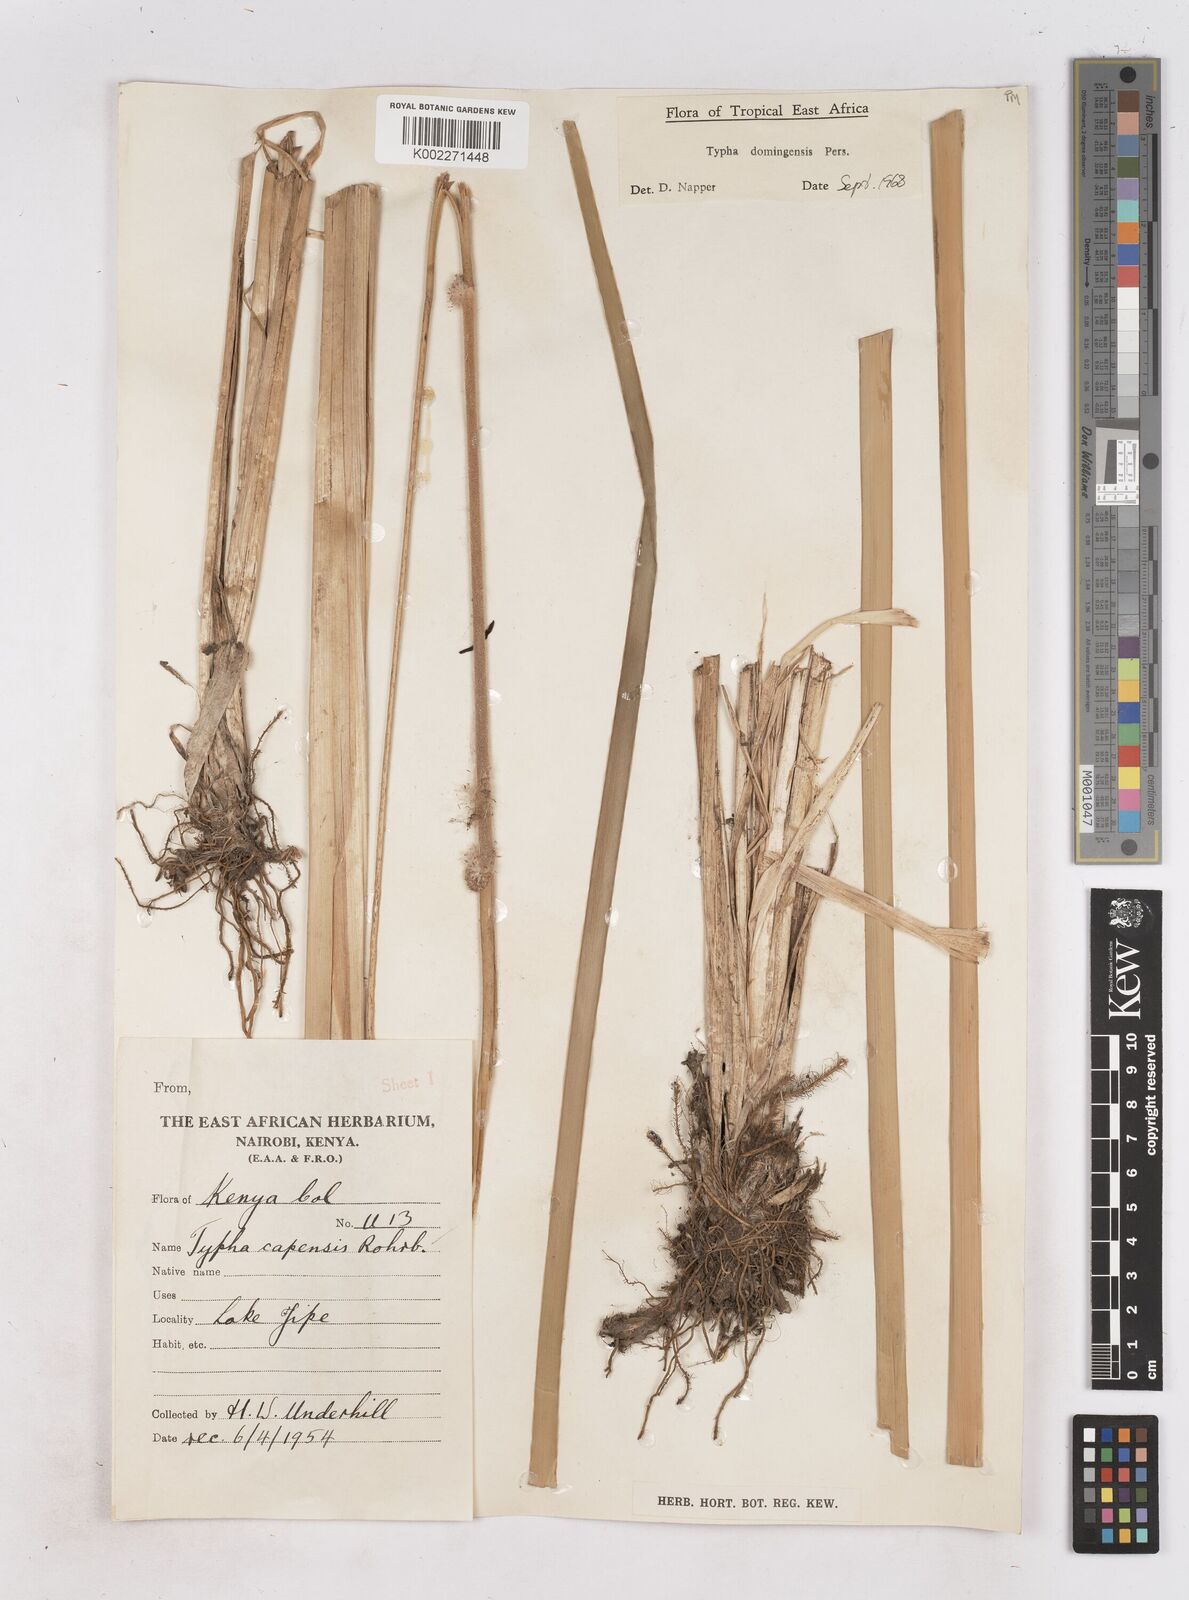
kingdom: Plantae
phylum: Tracheophyta
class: Liliopsida
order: Poales
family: Typhaceae
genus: Typha
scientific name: Typha domingensis
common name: Southern cattail
